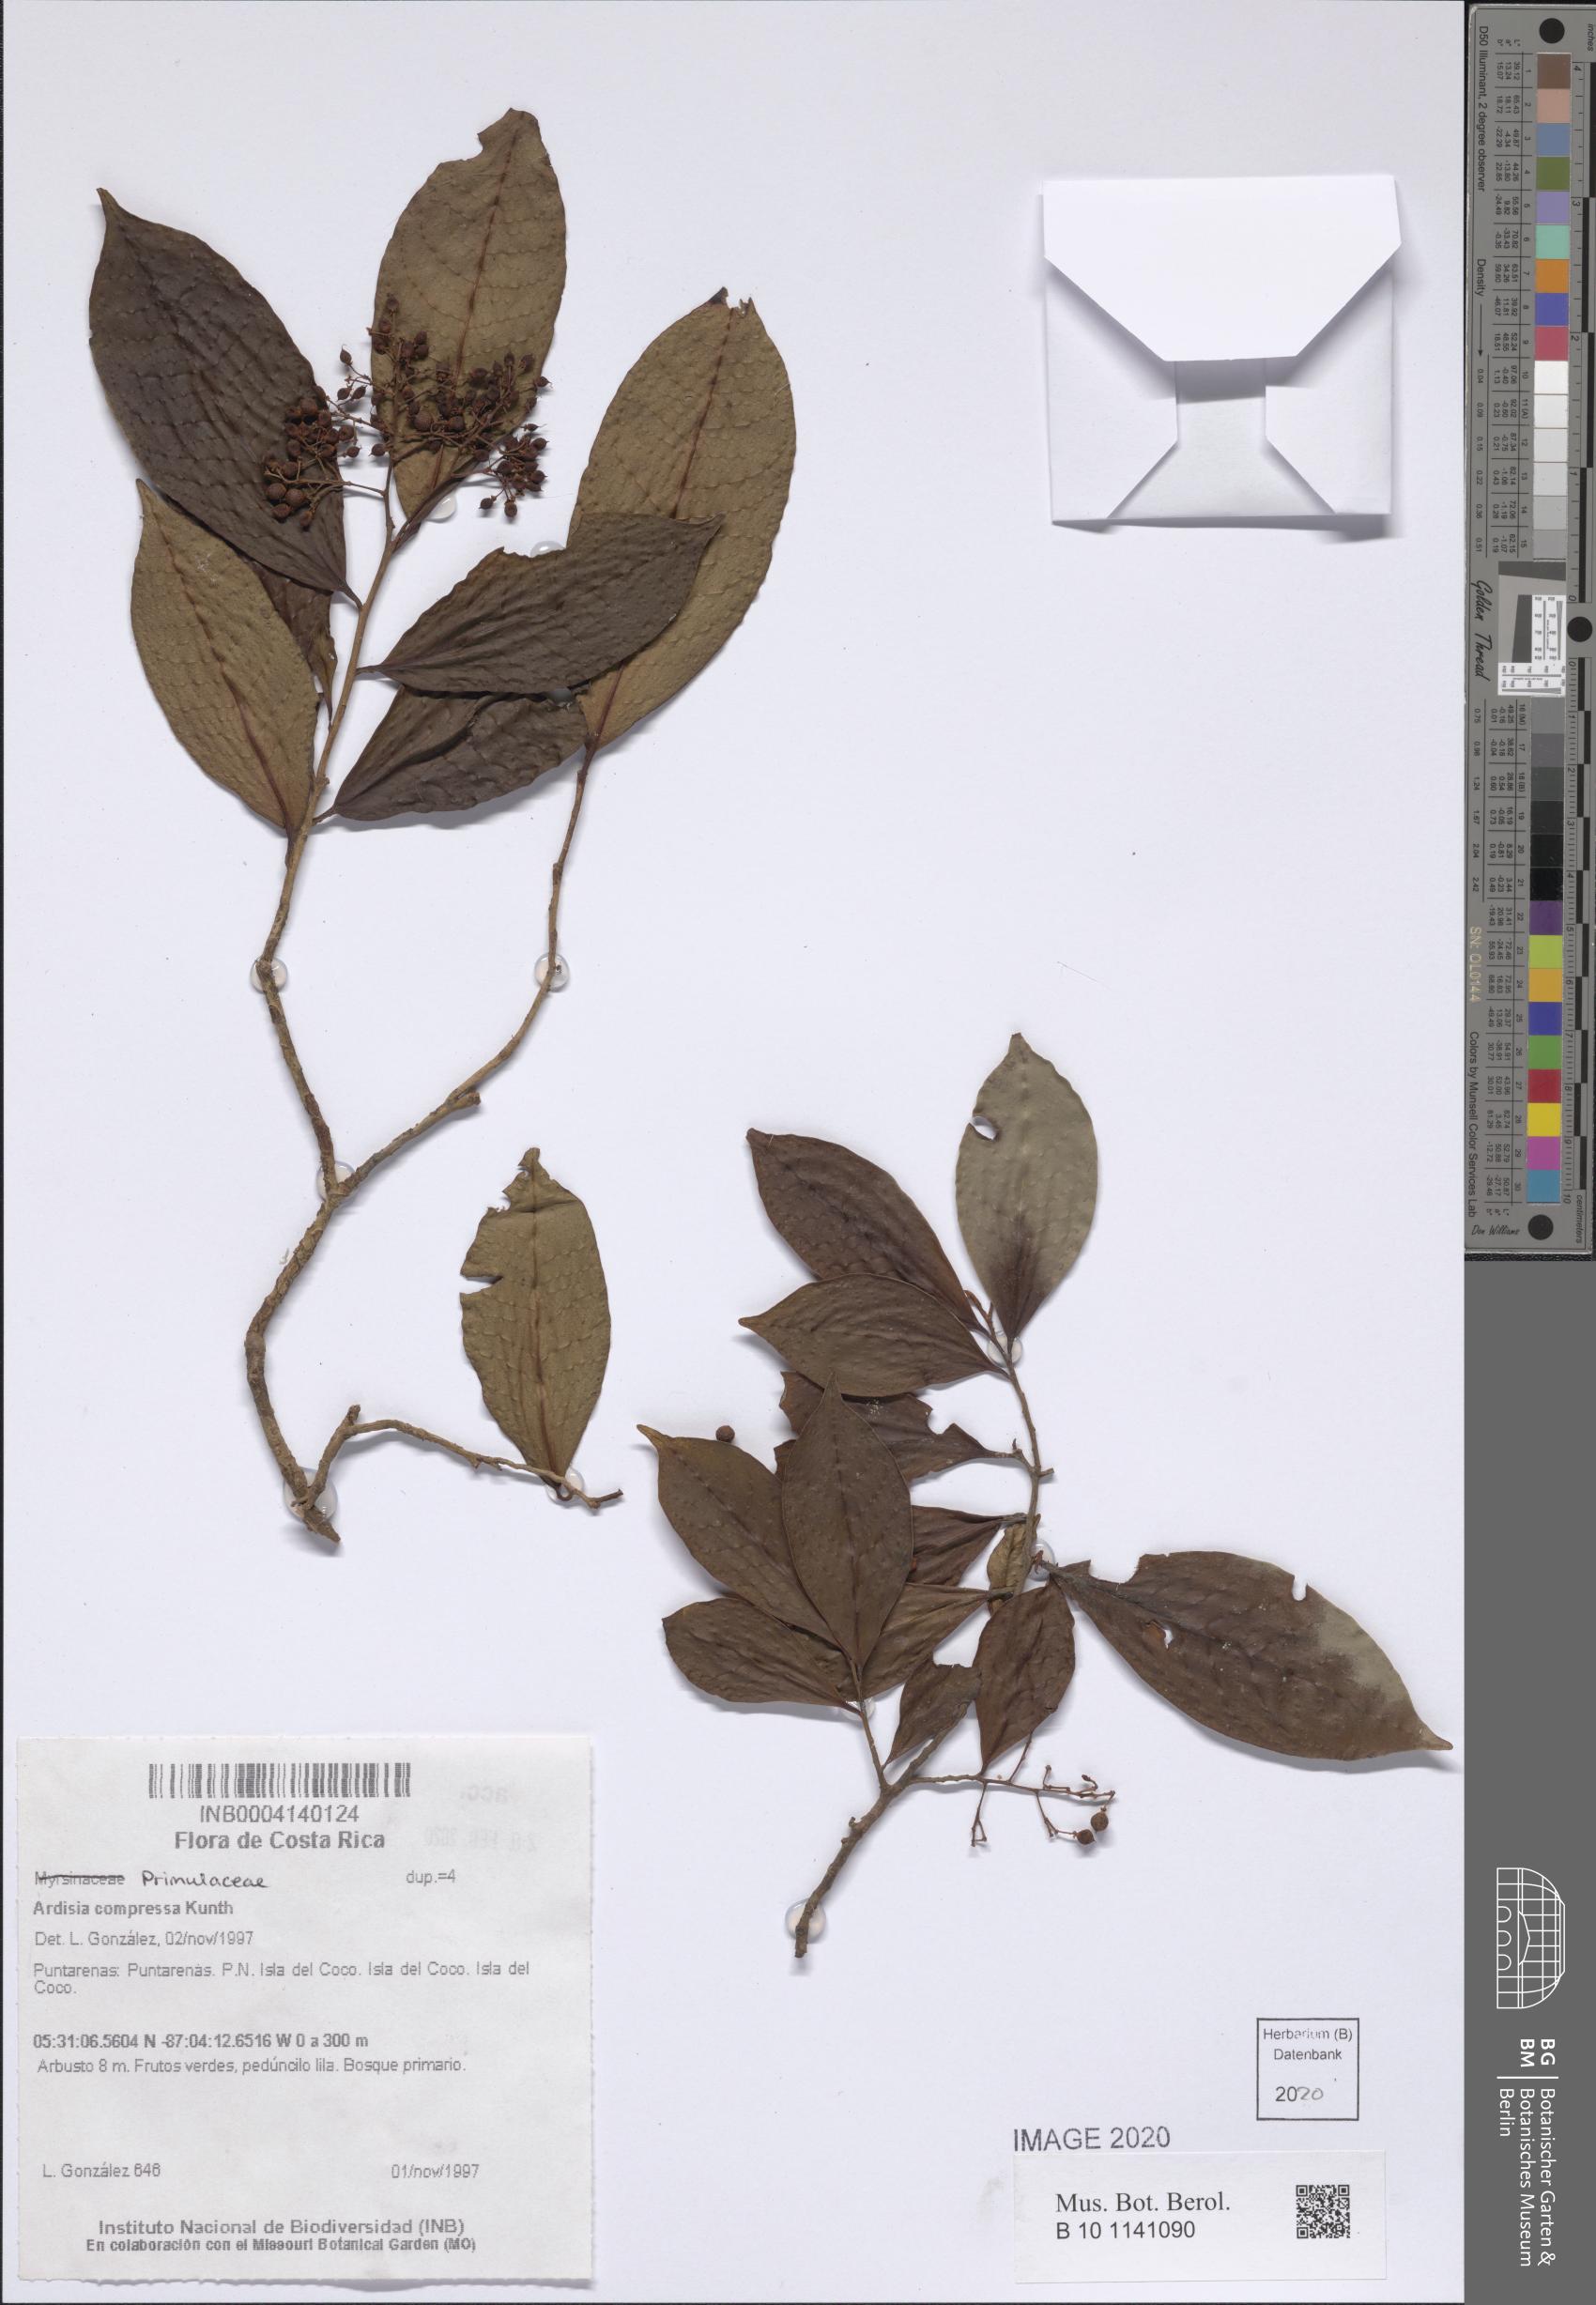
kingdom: Plantae
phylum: Tracheophyta
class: Magnoliopsida
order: Ericales
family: Primulaceae
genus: Ardisia
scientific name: Ardisia compressa
